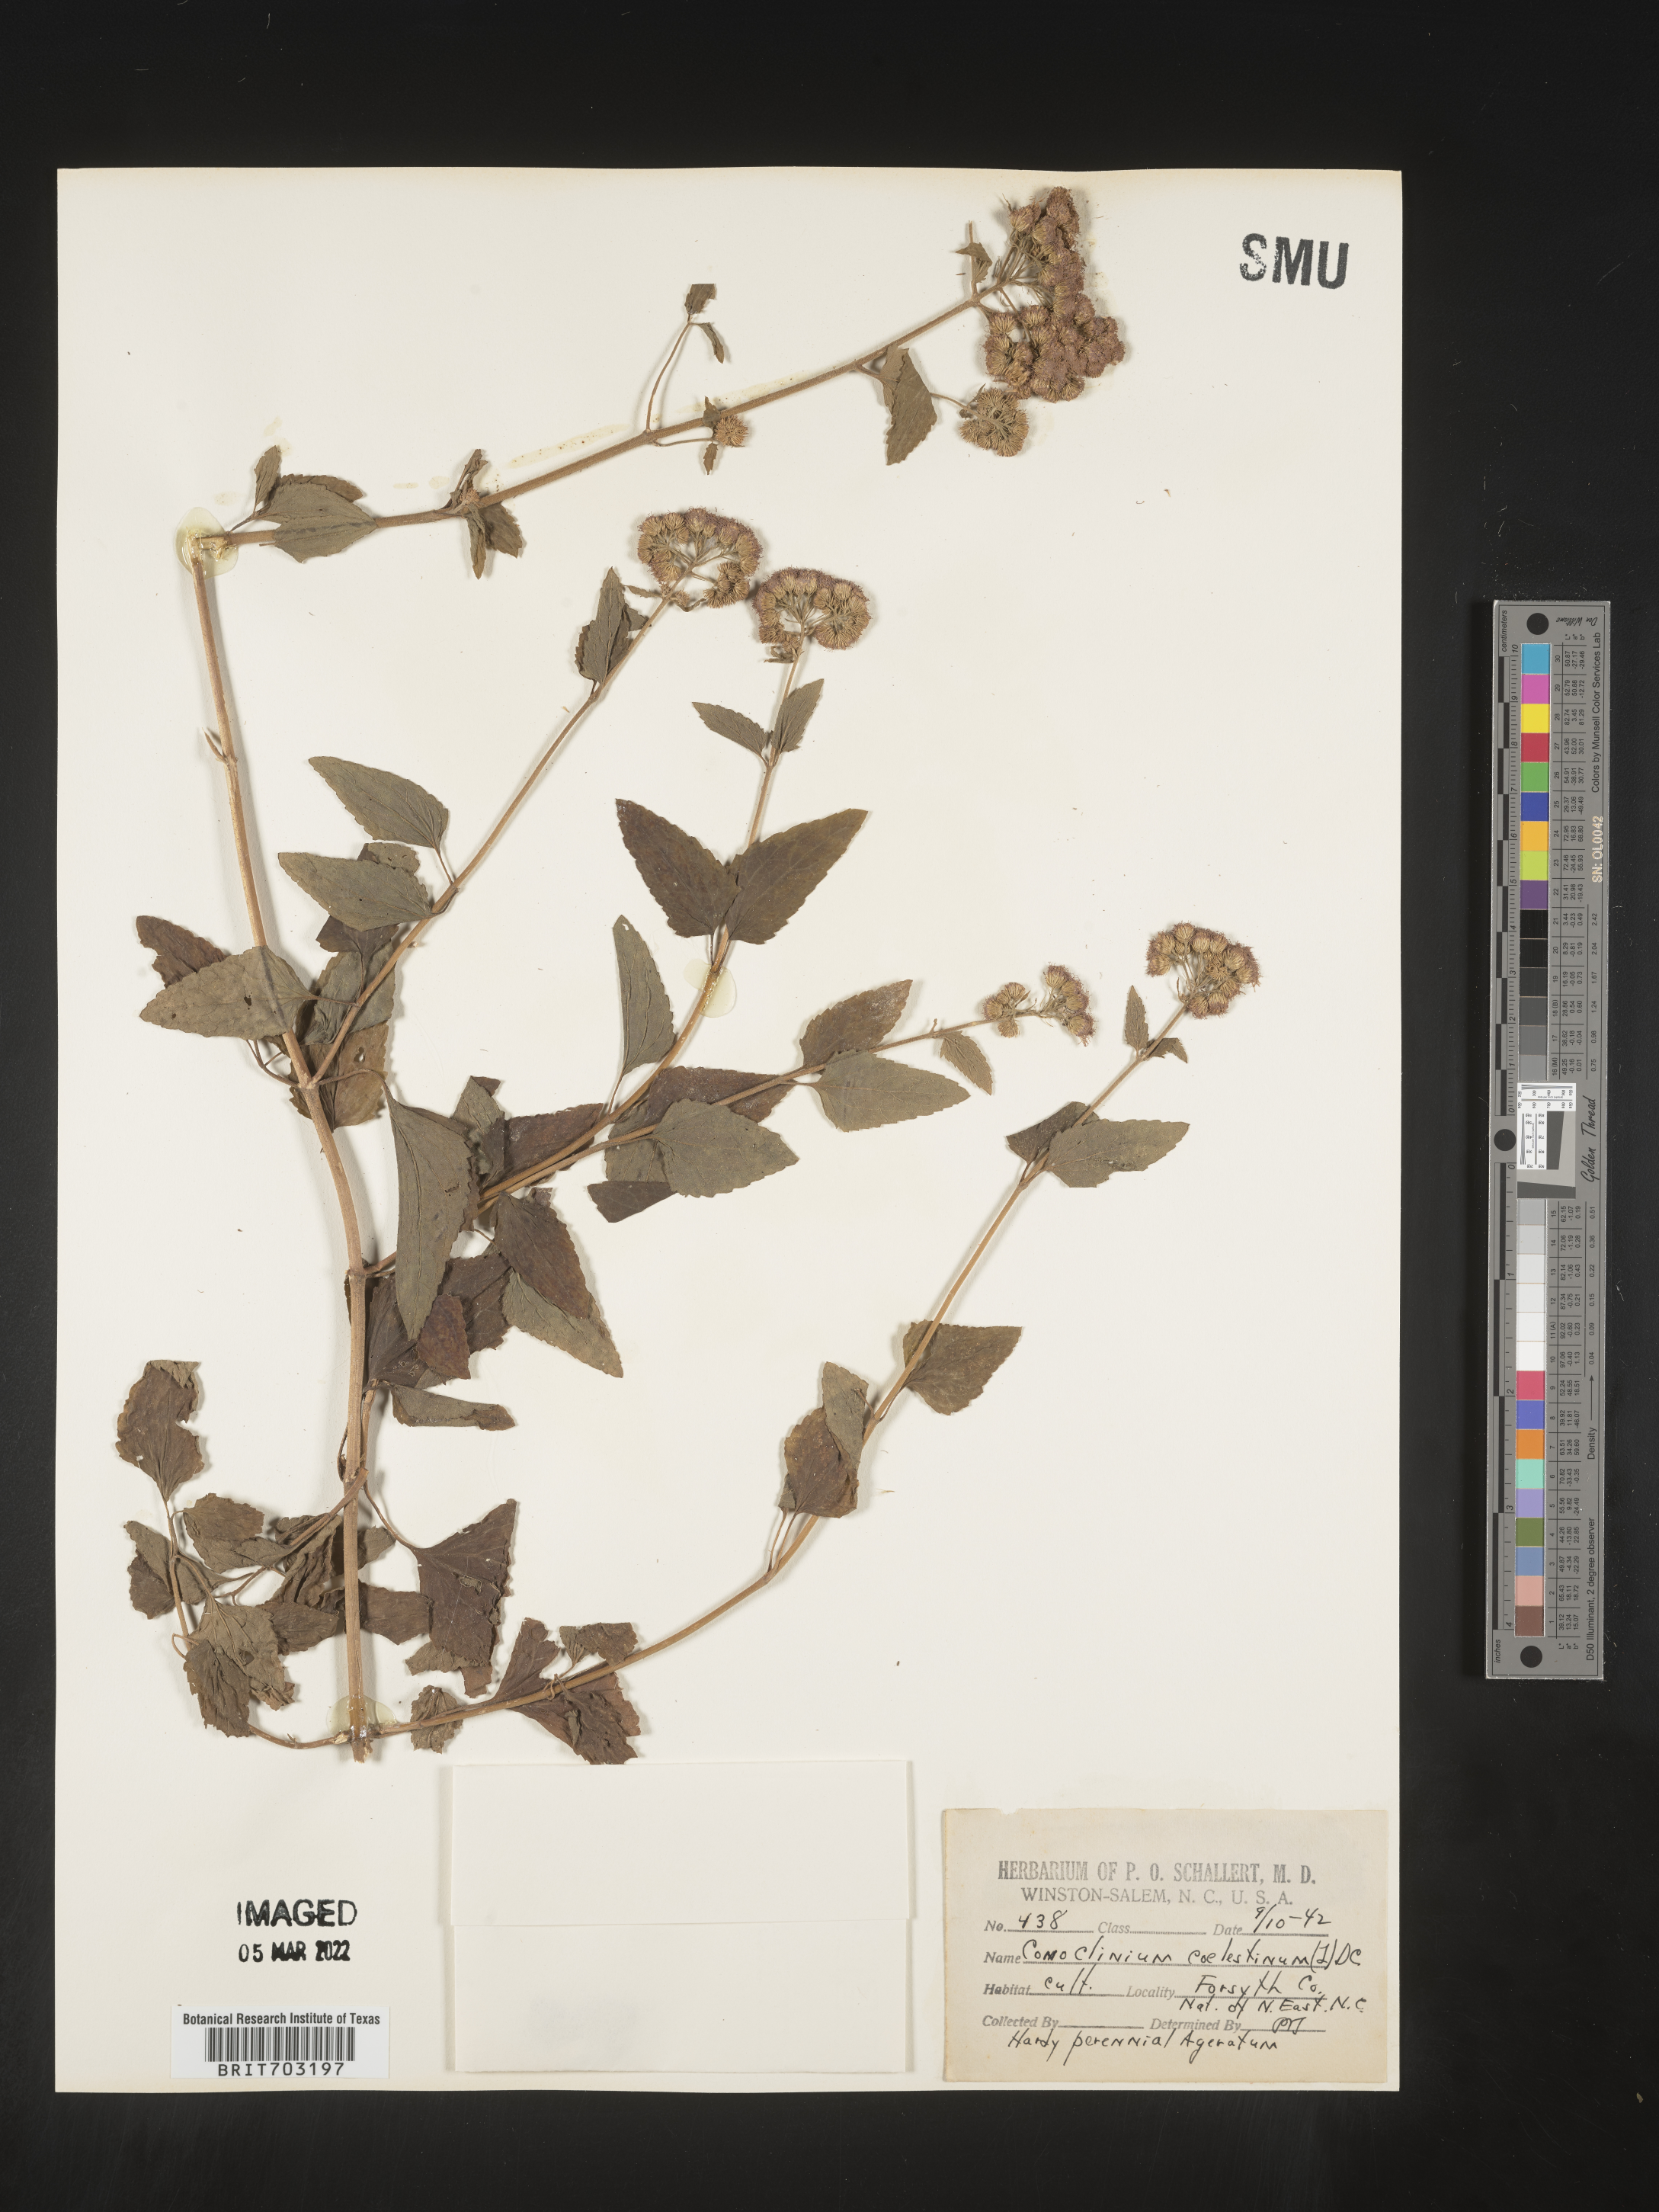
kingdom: Plantae
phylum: Tracheophyta
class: Magnoliopsida
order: Asterales
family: Asteraceae
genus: Eupatorium
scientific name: Eupatorium
